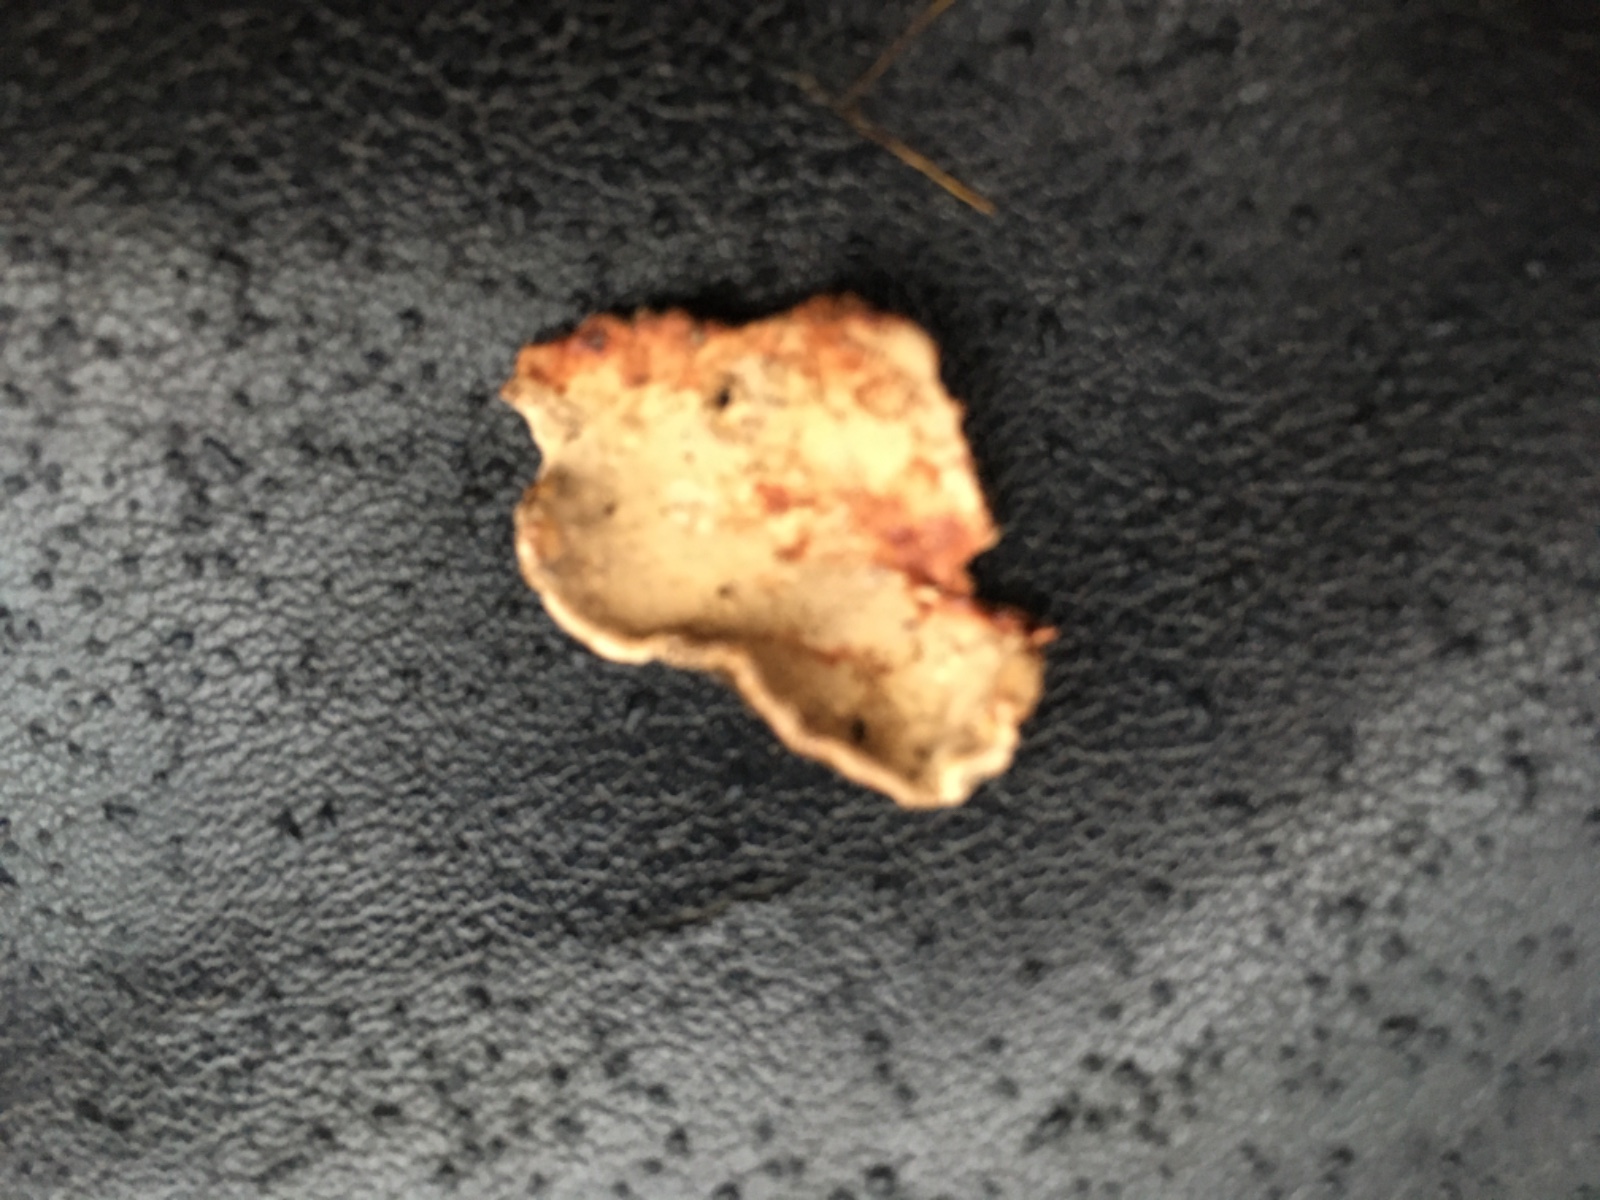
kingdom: Fungi
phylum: Basidiomycota
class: Agaricomycetes
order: Russulales
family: Stereaceae
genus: Stereum
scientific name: Stereum rugosum
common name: rynket lædersvamp
